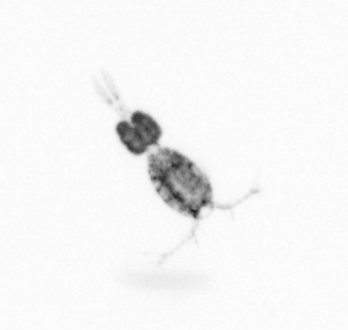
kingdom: Animalia
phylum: Arthropoda
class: Copepoda
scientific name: Copepoda
